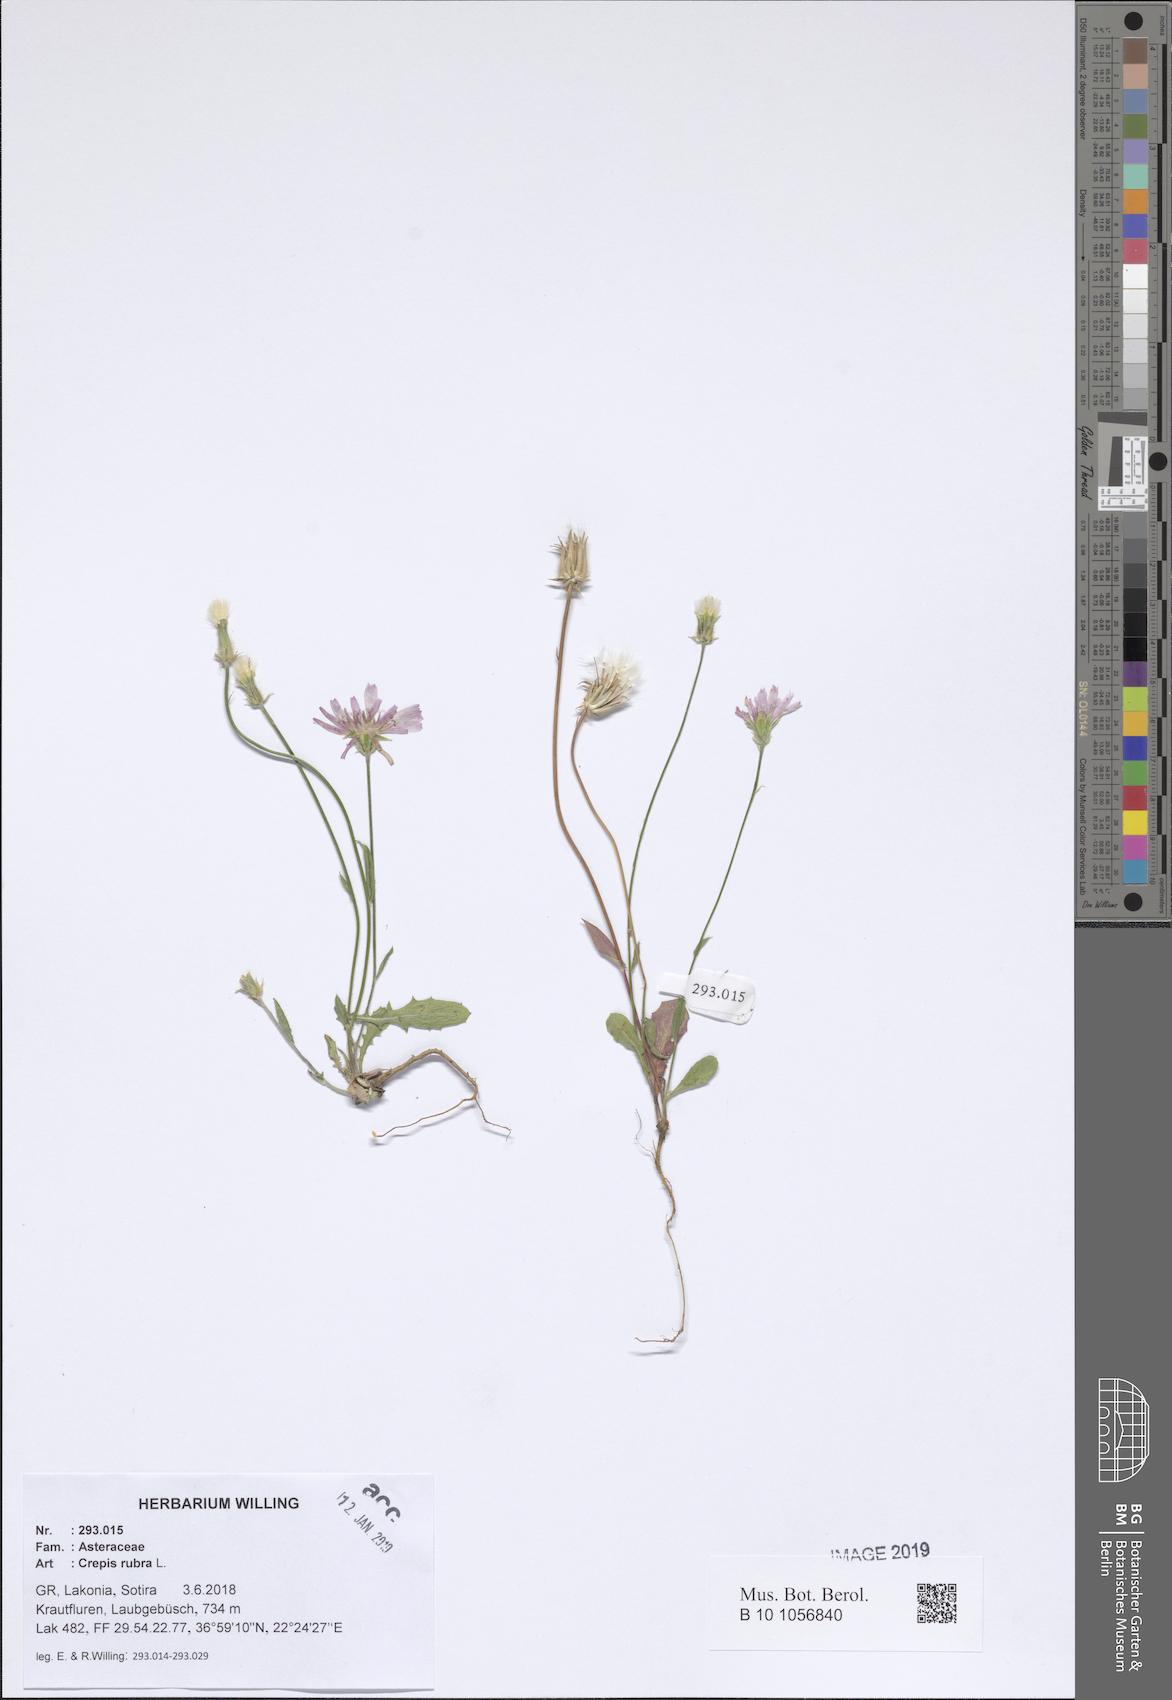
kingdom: Plantae
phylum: Tracheophyta
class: Magnoliopsida
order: Asterales
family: Asteraceae
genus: Crepis
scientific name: Crepis rubra
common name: Pink hawk's-beard
